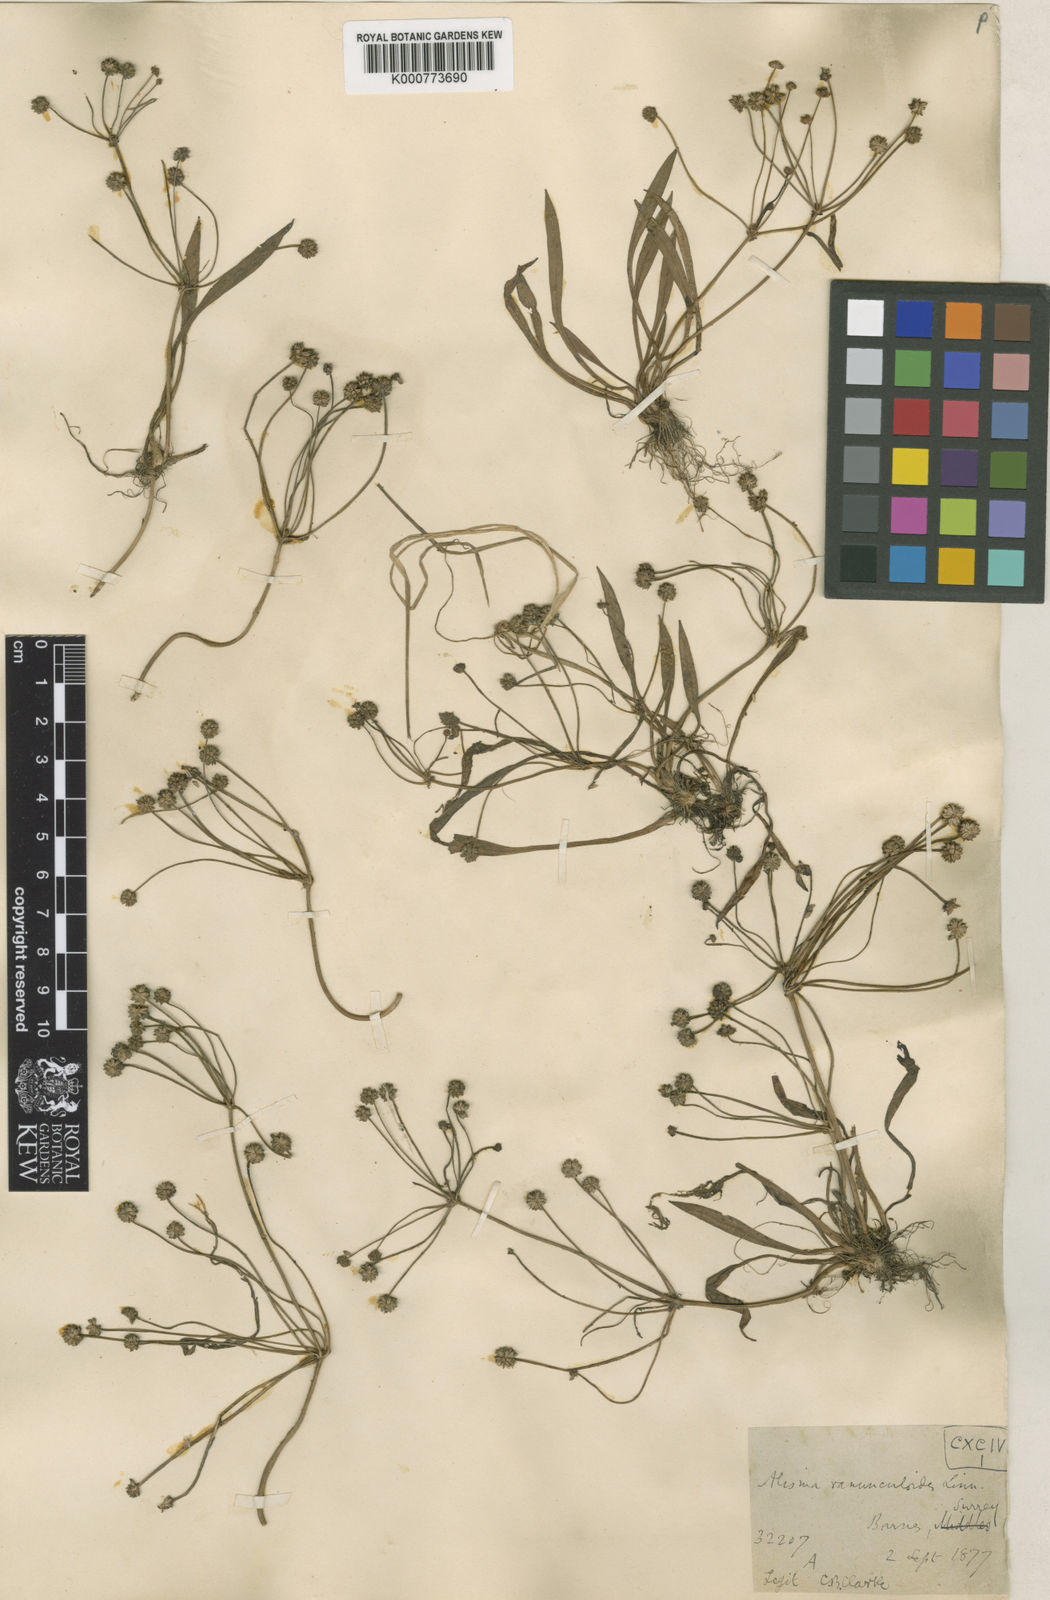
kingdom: Plantae
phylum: Tracheophyta
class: Liliopsida
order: Alismatales
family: Alismataceae
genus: Baldellia
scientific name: Baldellia ranunculoides
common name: Lesser water-plantain
